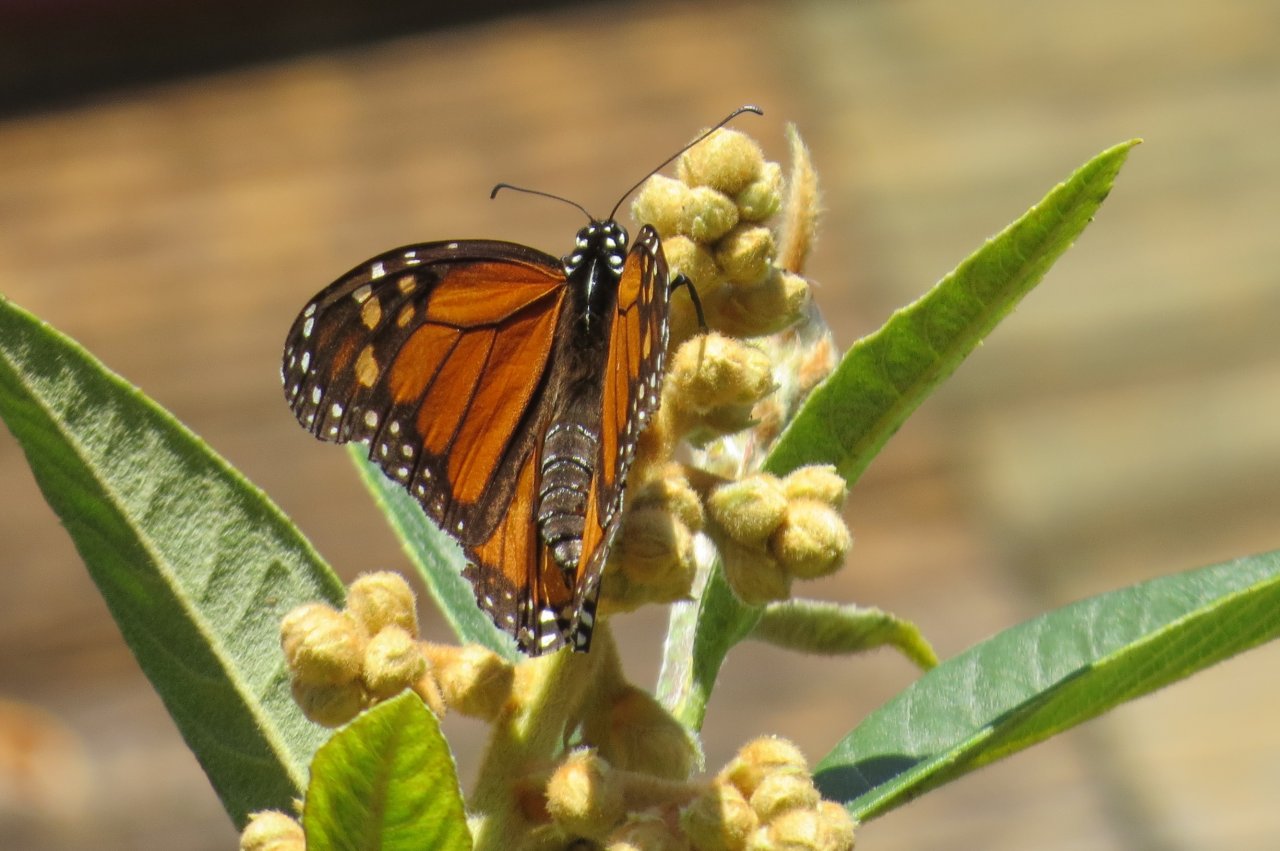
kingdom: Animalia
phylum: Arthropoda
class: Insecta
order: Lepidoptera
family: Nymphalidae
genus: Danaus
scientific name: Danaus plexippus
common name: Monarch
